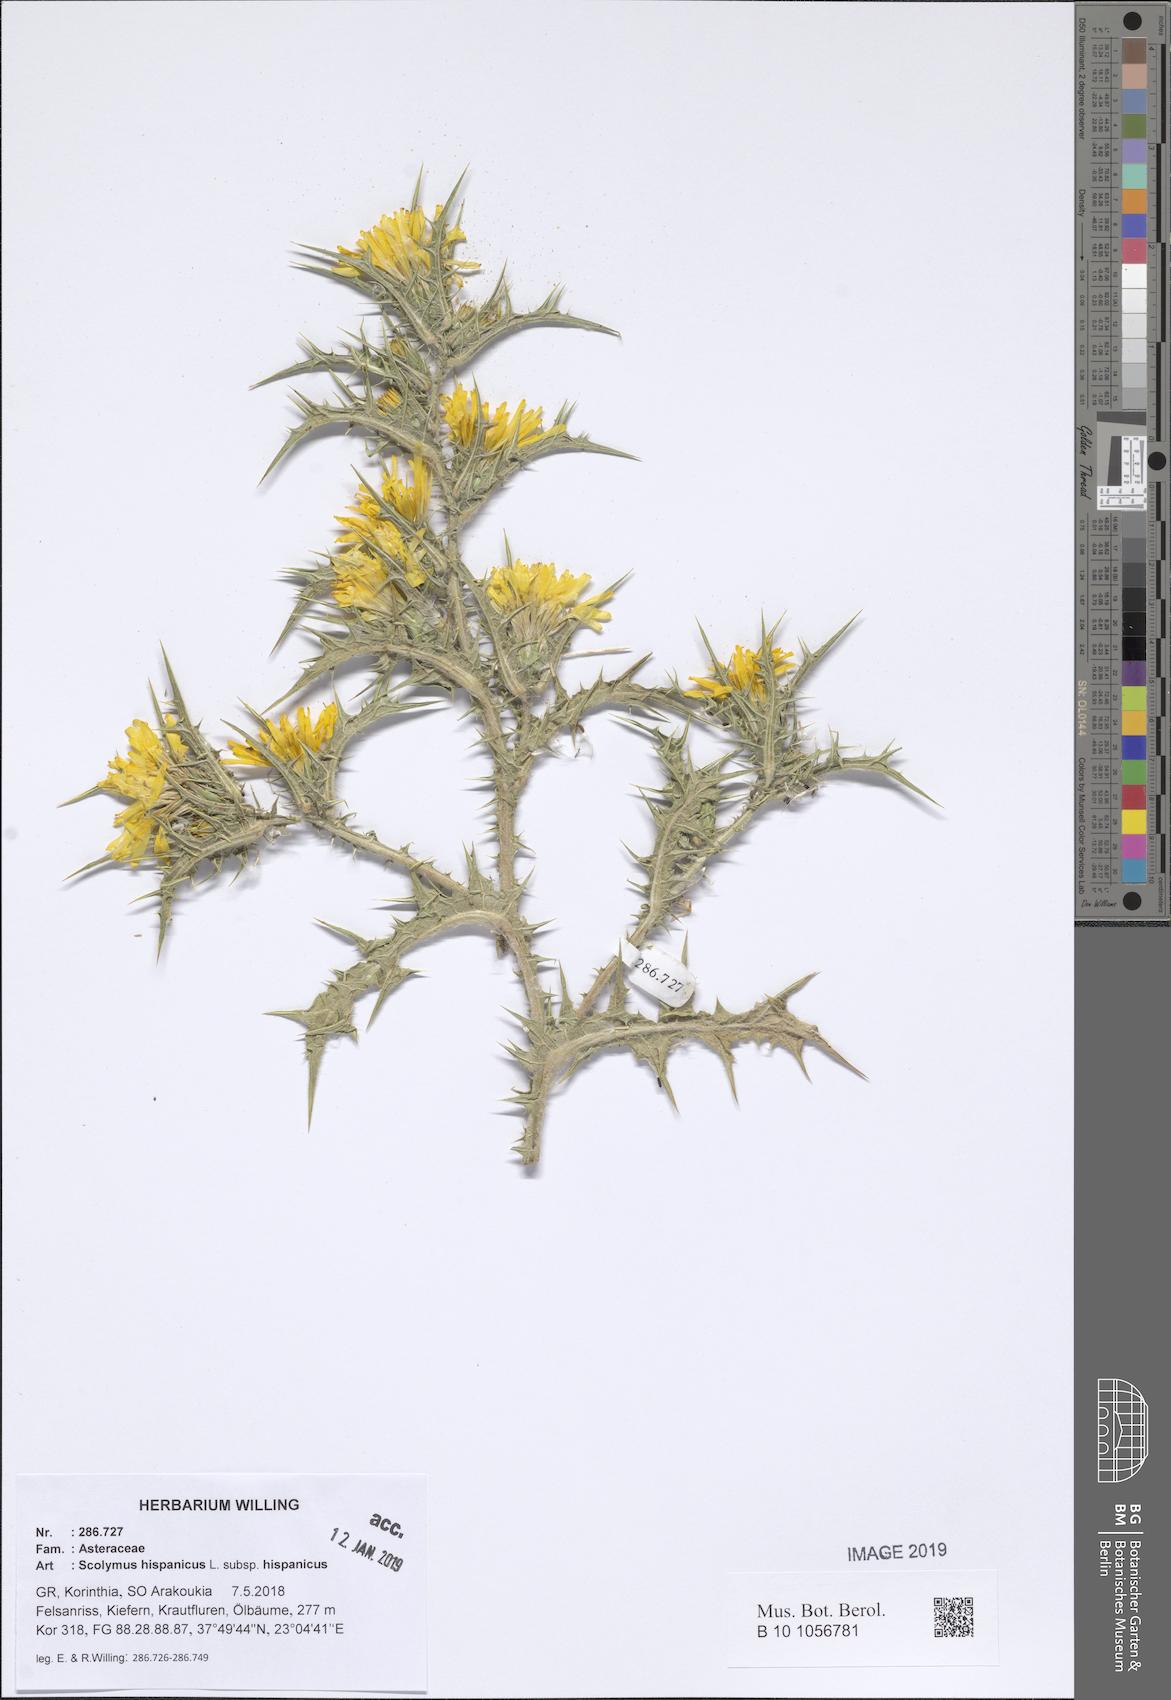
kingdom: Plantae
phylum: Tracheophyta
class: Magnoliopsida
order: Asterales
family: Asteraceae
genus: Scolymus
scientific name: Scolymus hispanicus
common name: Golden thistle
